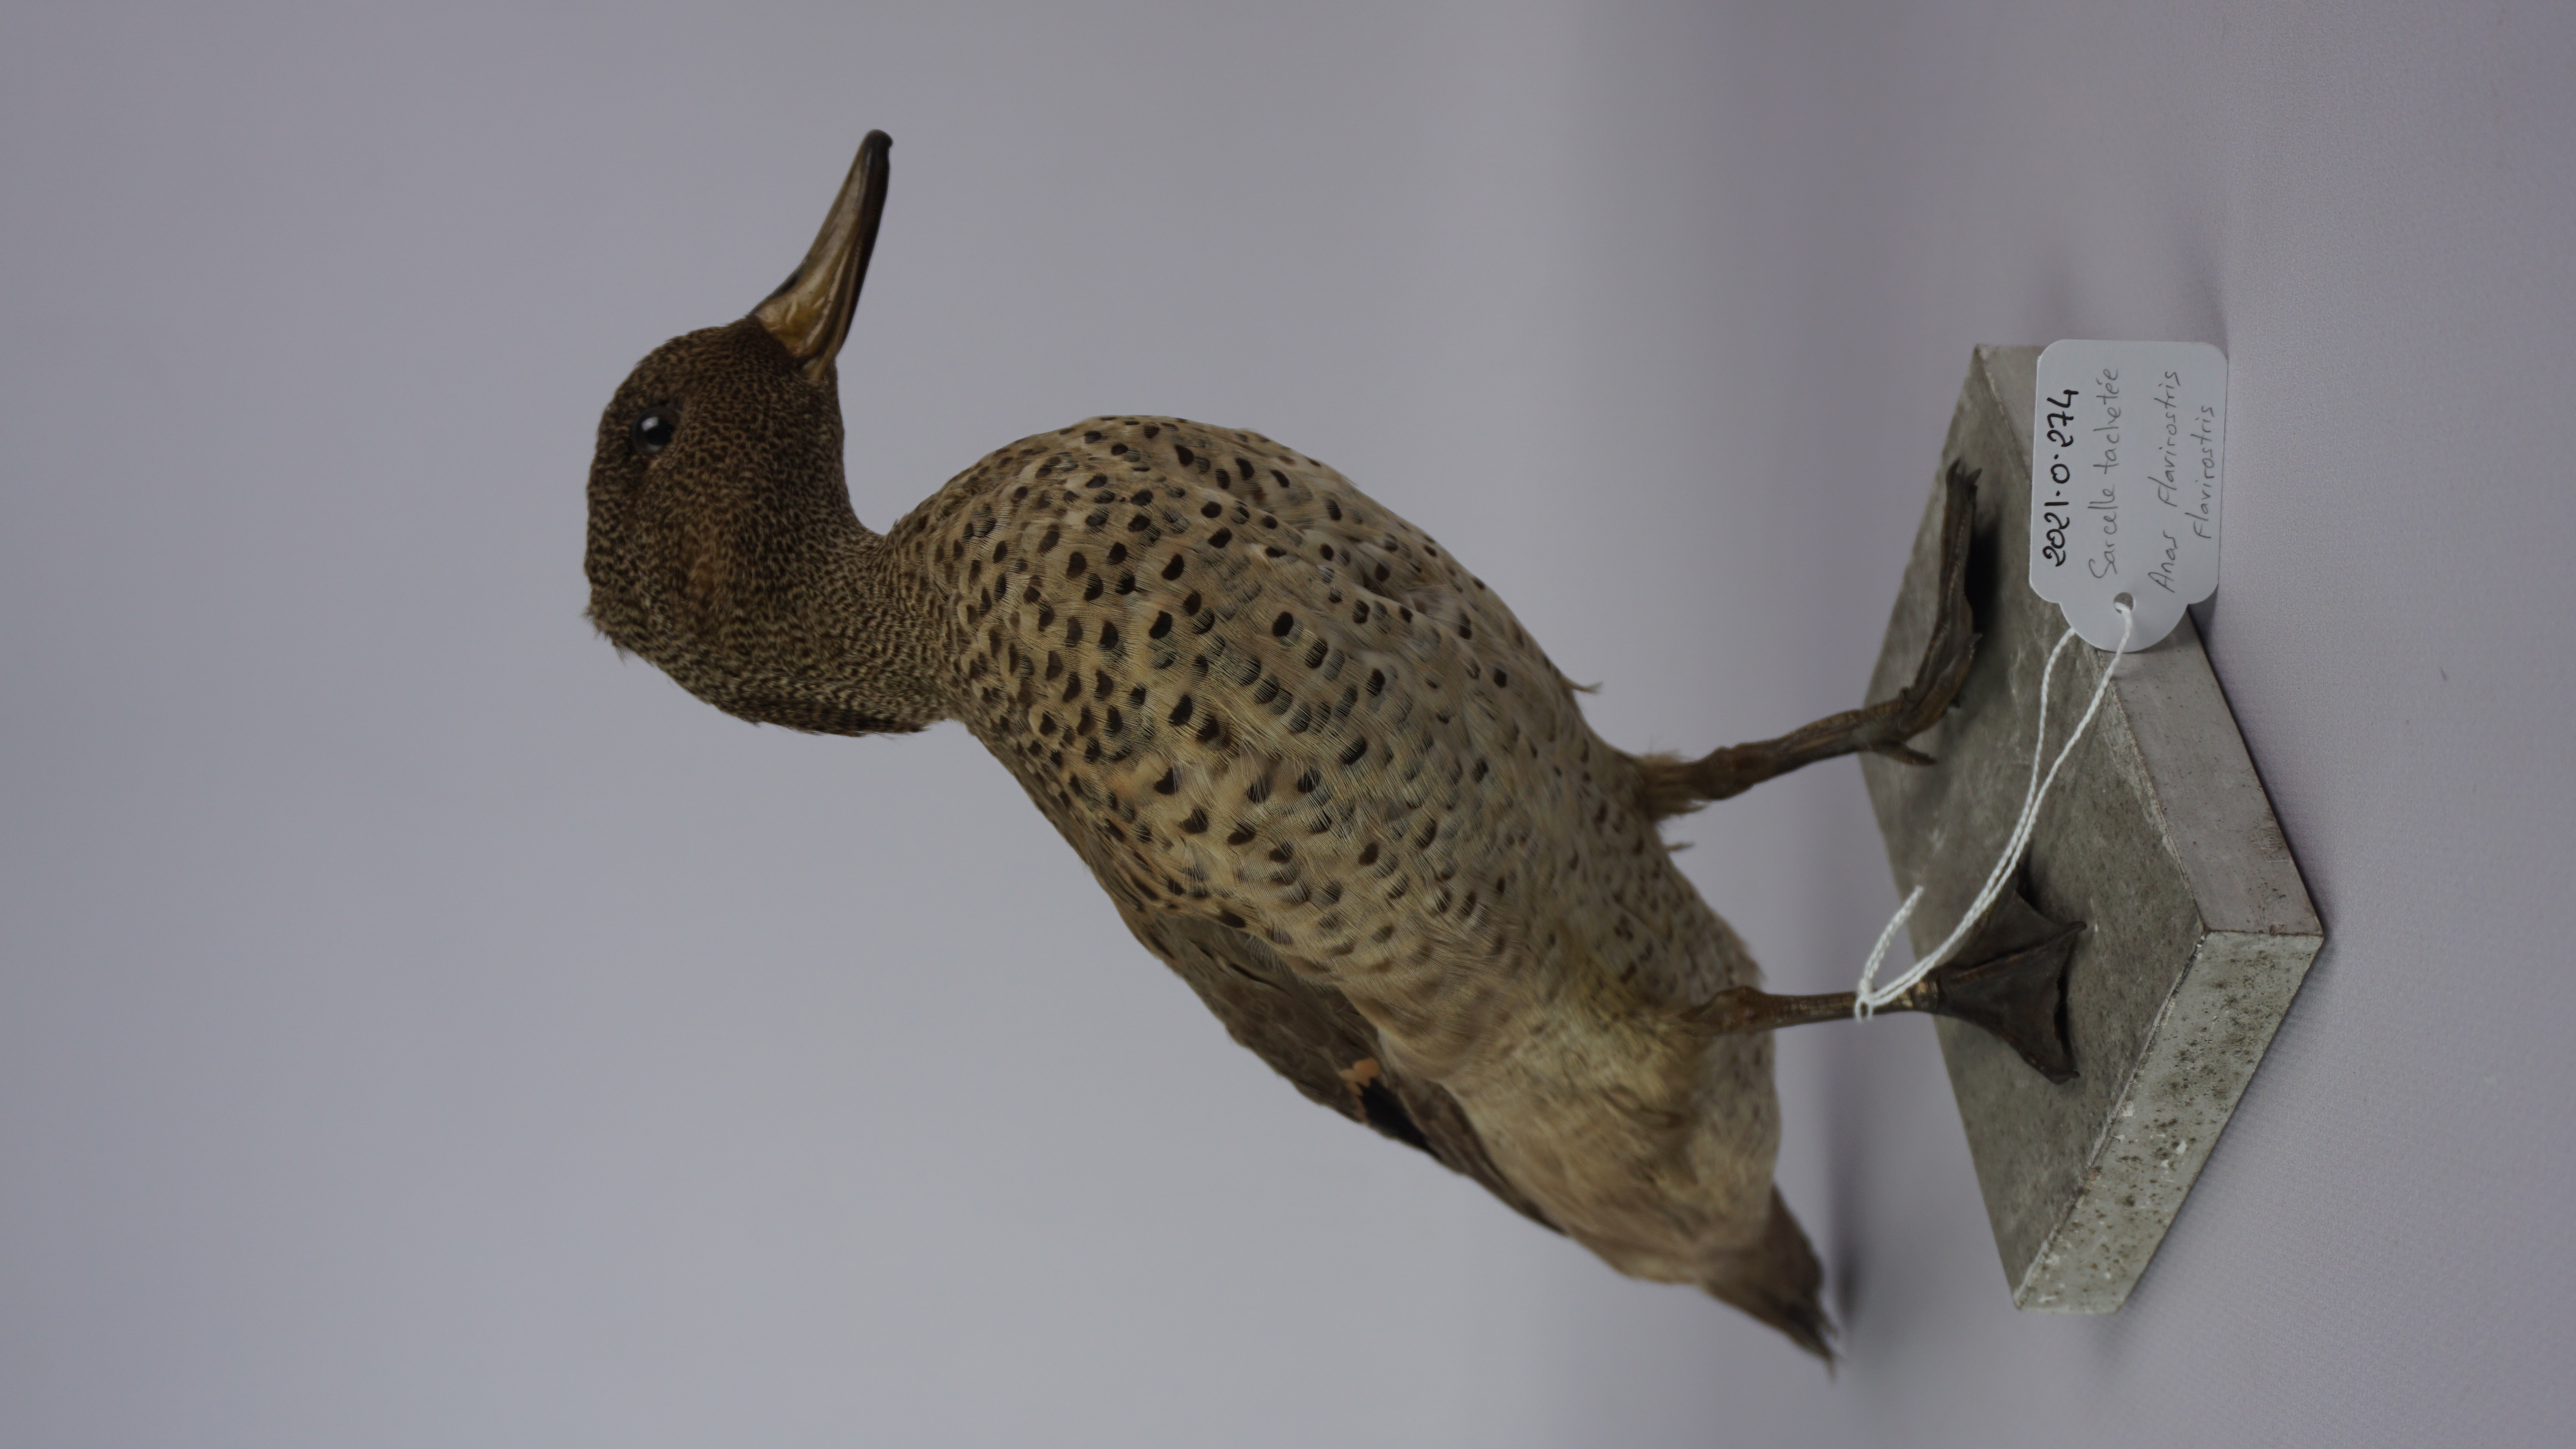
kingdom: Animalia
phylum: Chordata
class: Aves
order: Anseriformes
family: Anatidae
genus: Anas
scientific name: Anas flavirostris
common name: Yellow-billed teal
